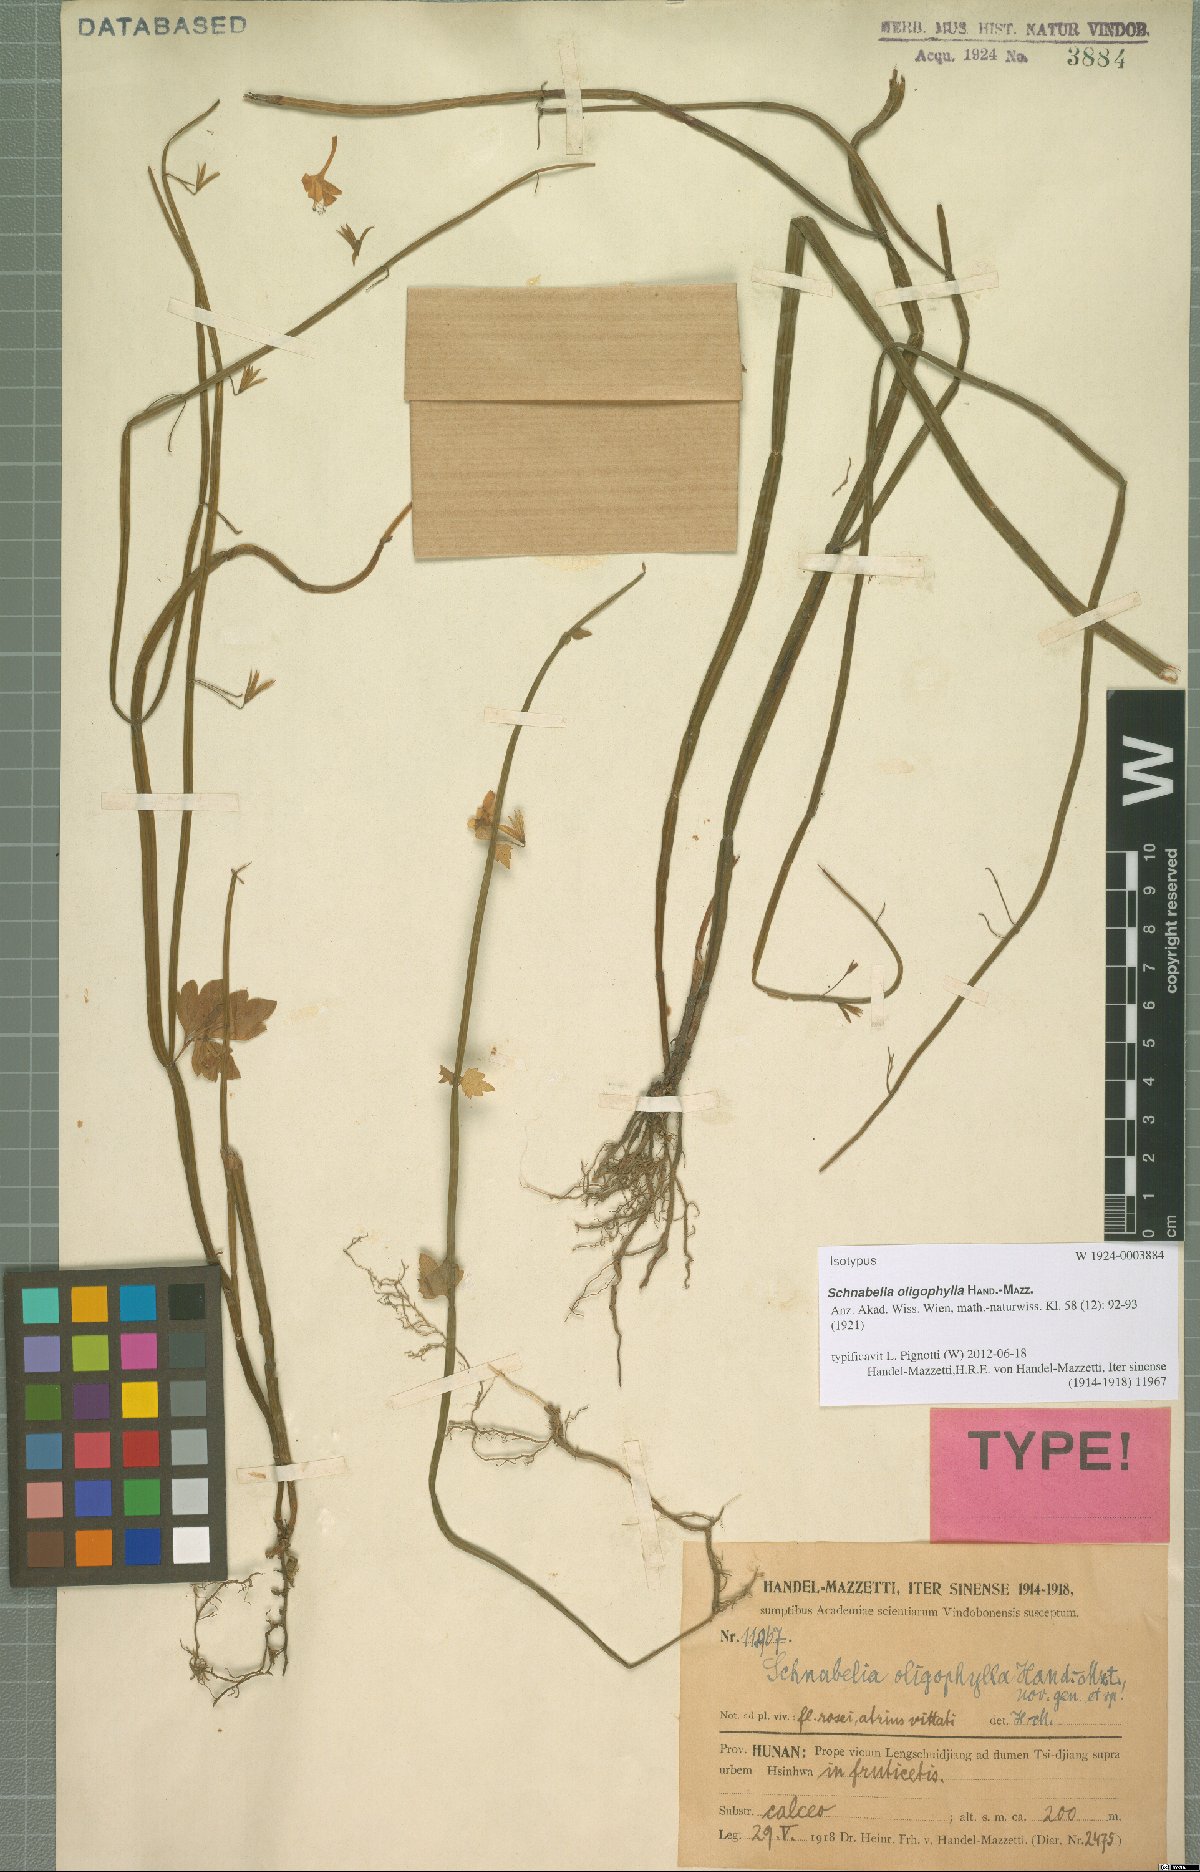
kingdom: Plantae
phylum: Tracheophyta
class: Magnoliopsida
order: Lamiales
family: Lamiaceae
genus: Schnabelia
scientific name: Schnabelia oligophylla
